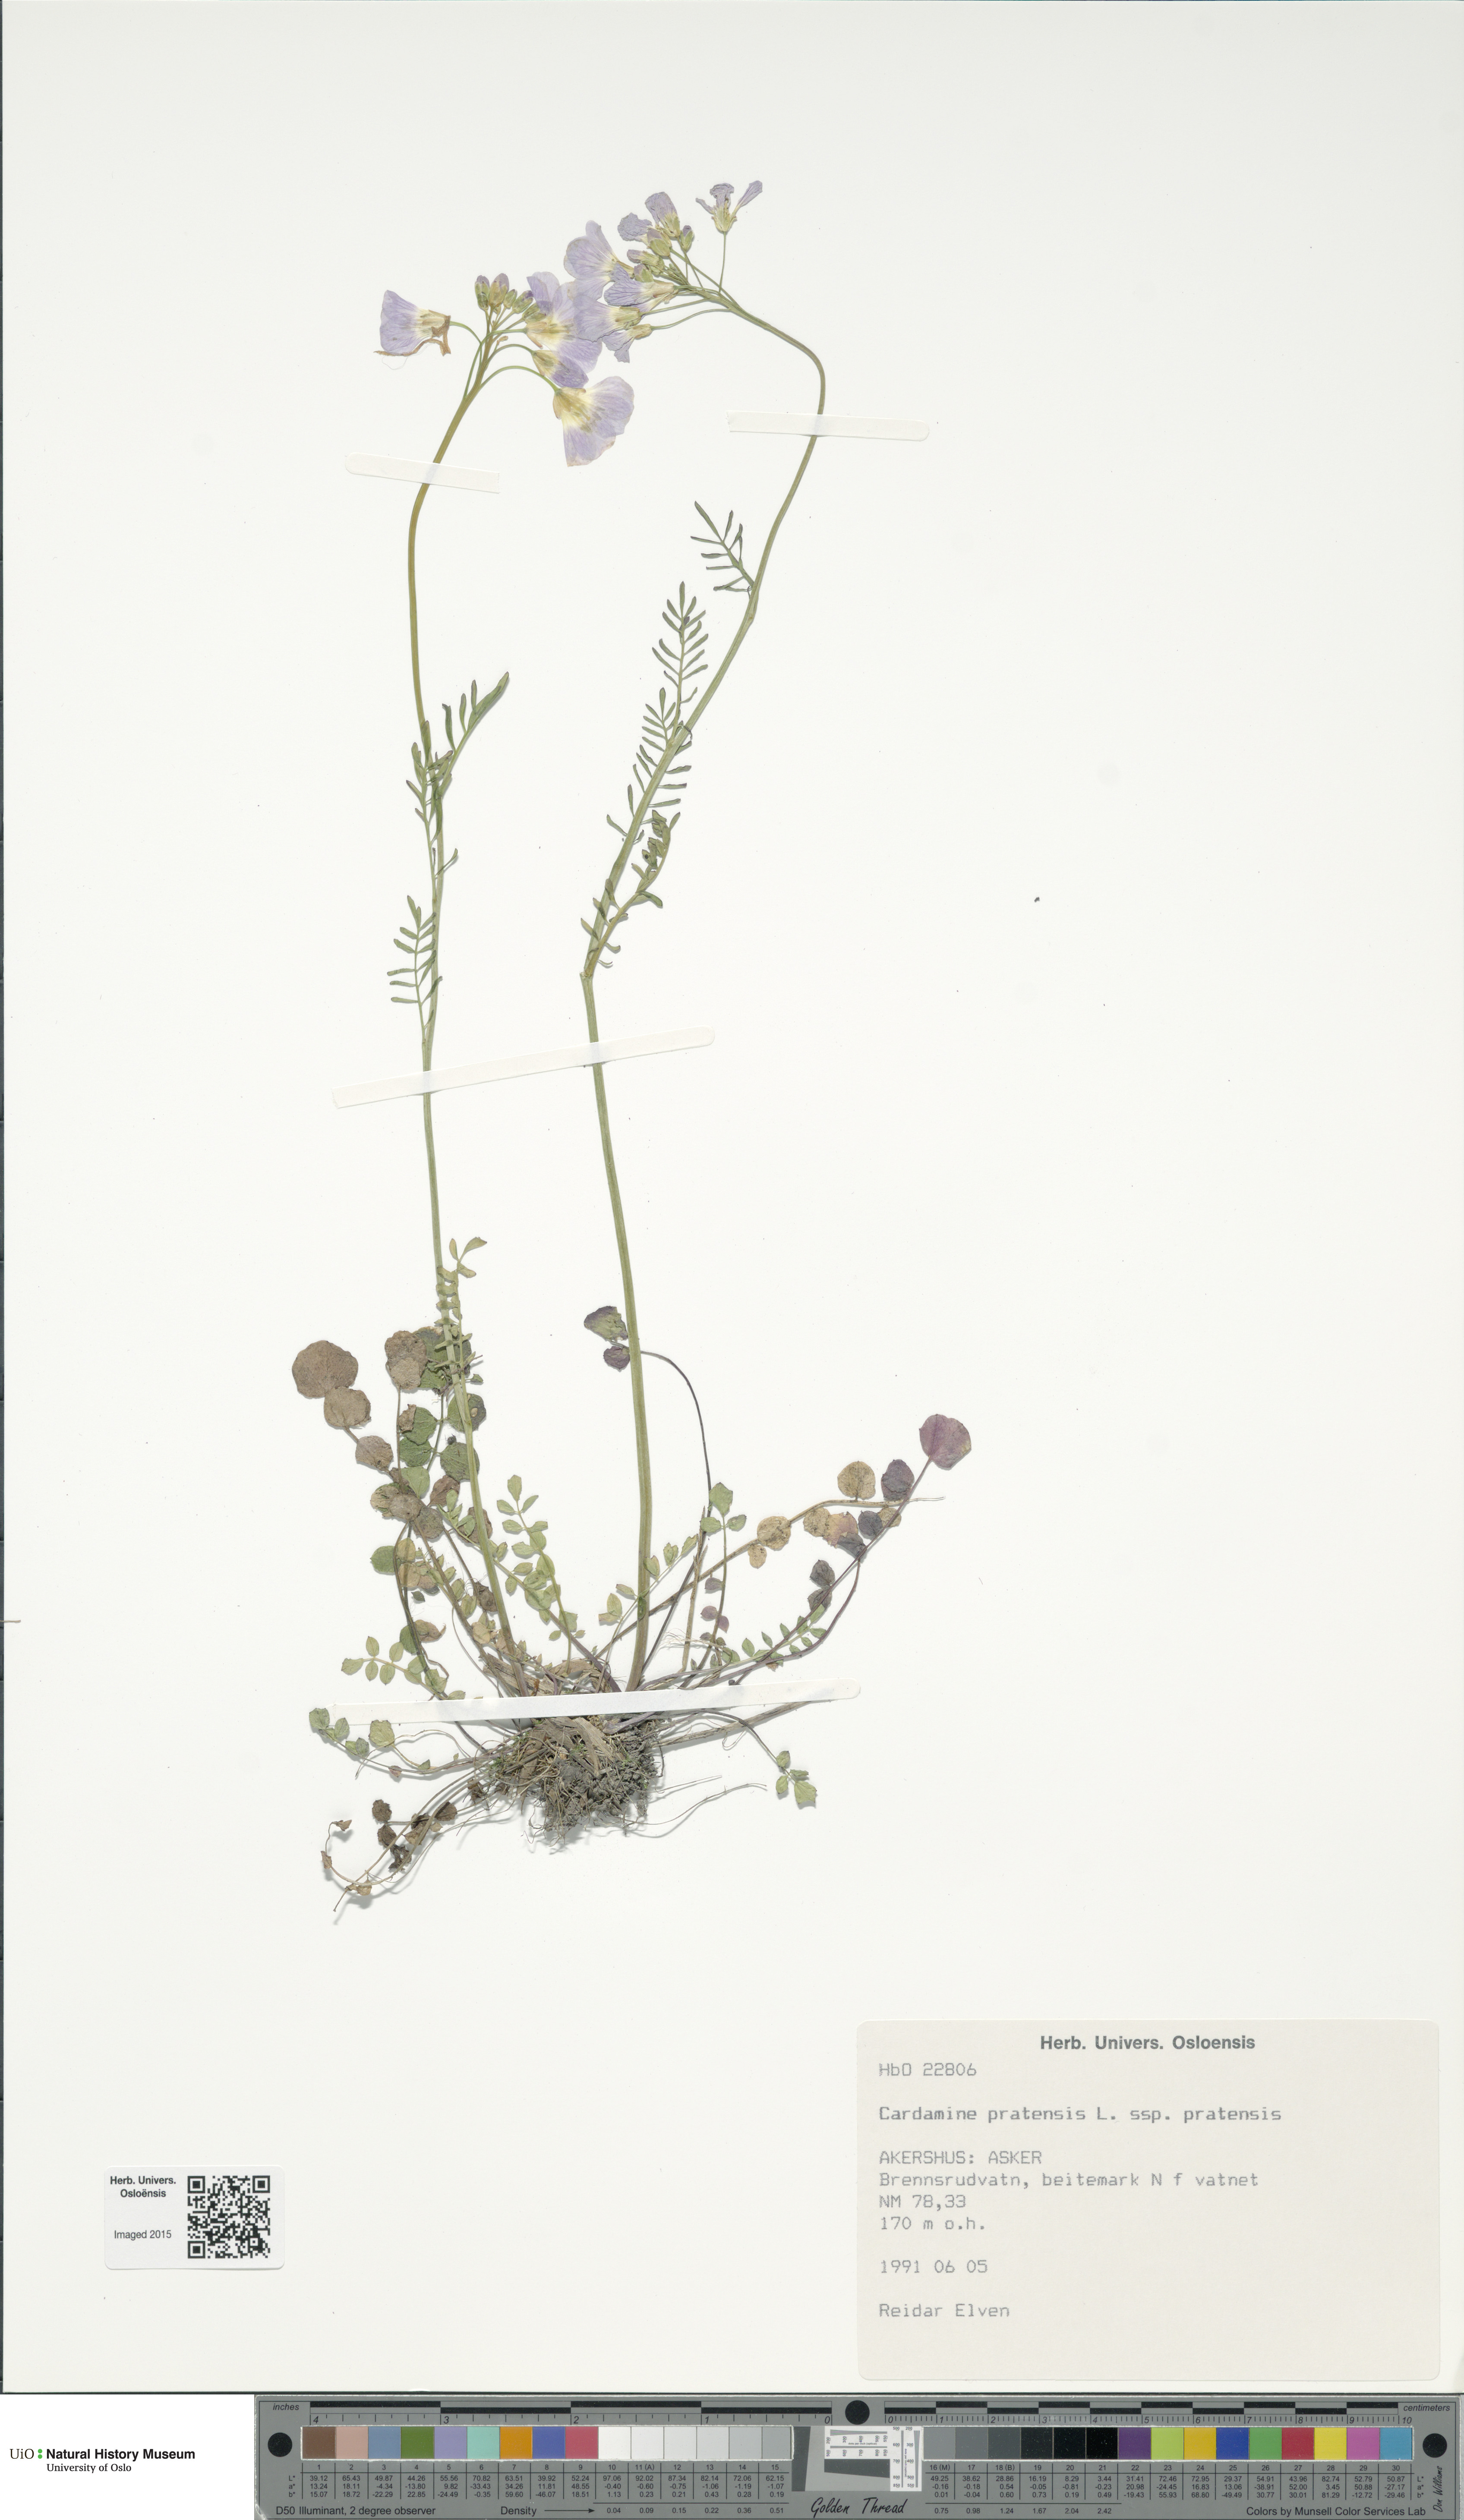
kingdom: Plantae
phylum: Tracheophyta
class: Magnoliopsida
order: Brassicales
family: Brassicaceae
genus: Cardamine
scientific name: Cardamine pratensis
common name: Cuckoo flower
